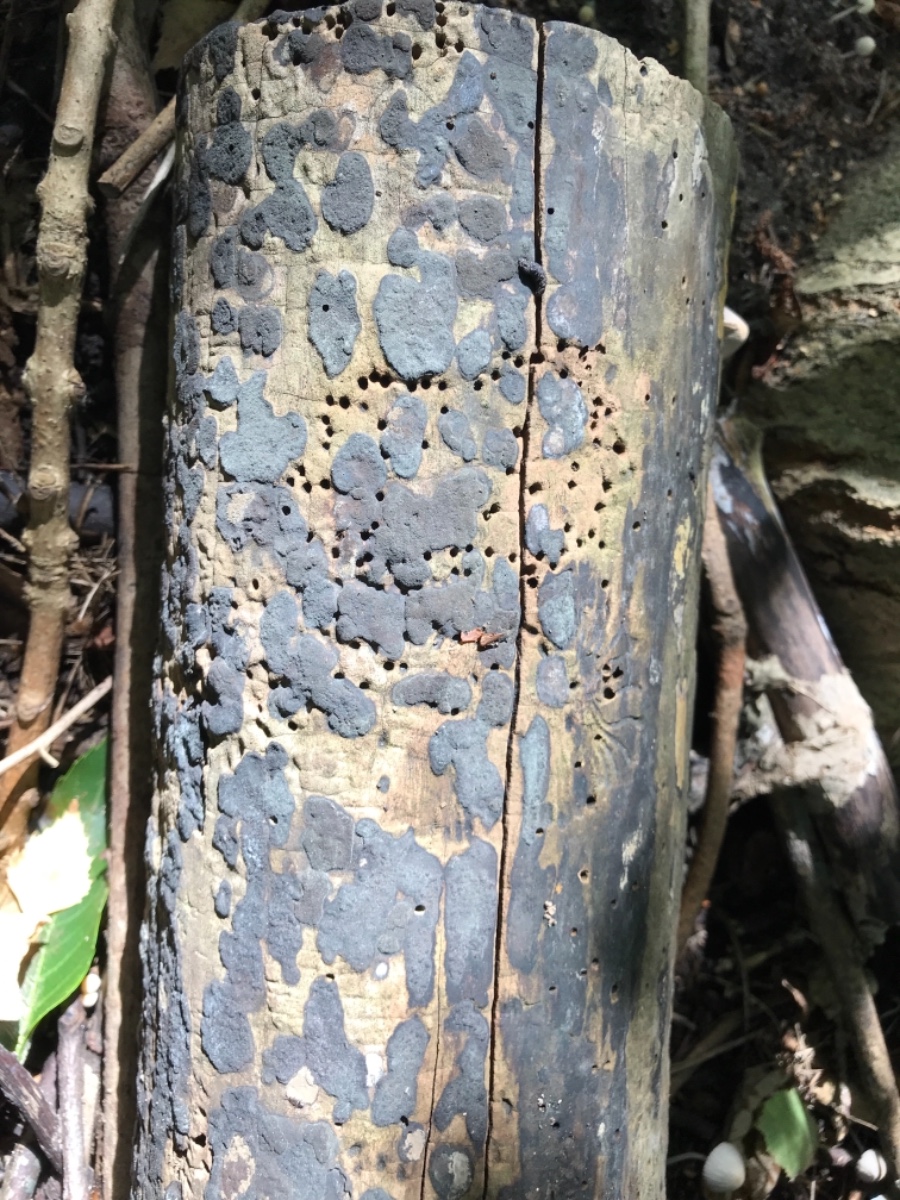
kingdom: Fungi
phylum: Ascomycota
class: Sordariomycetes
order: Xylariales
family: Hypoxylaceae
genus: Hypoxylon
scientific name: Hypoxylon petriniae
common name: nedsænket kulbær
